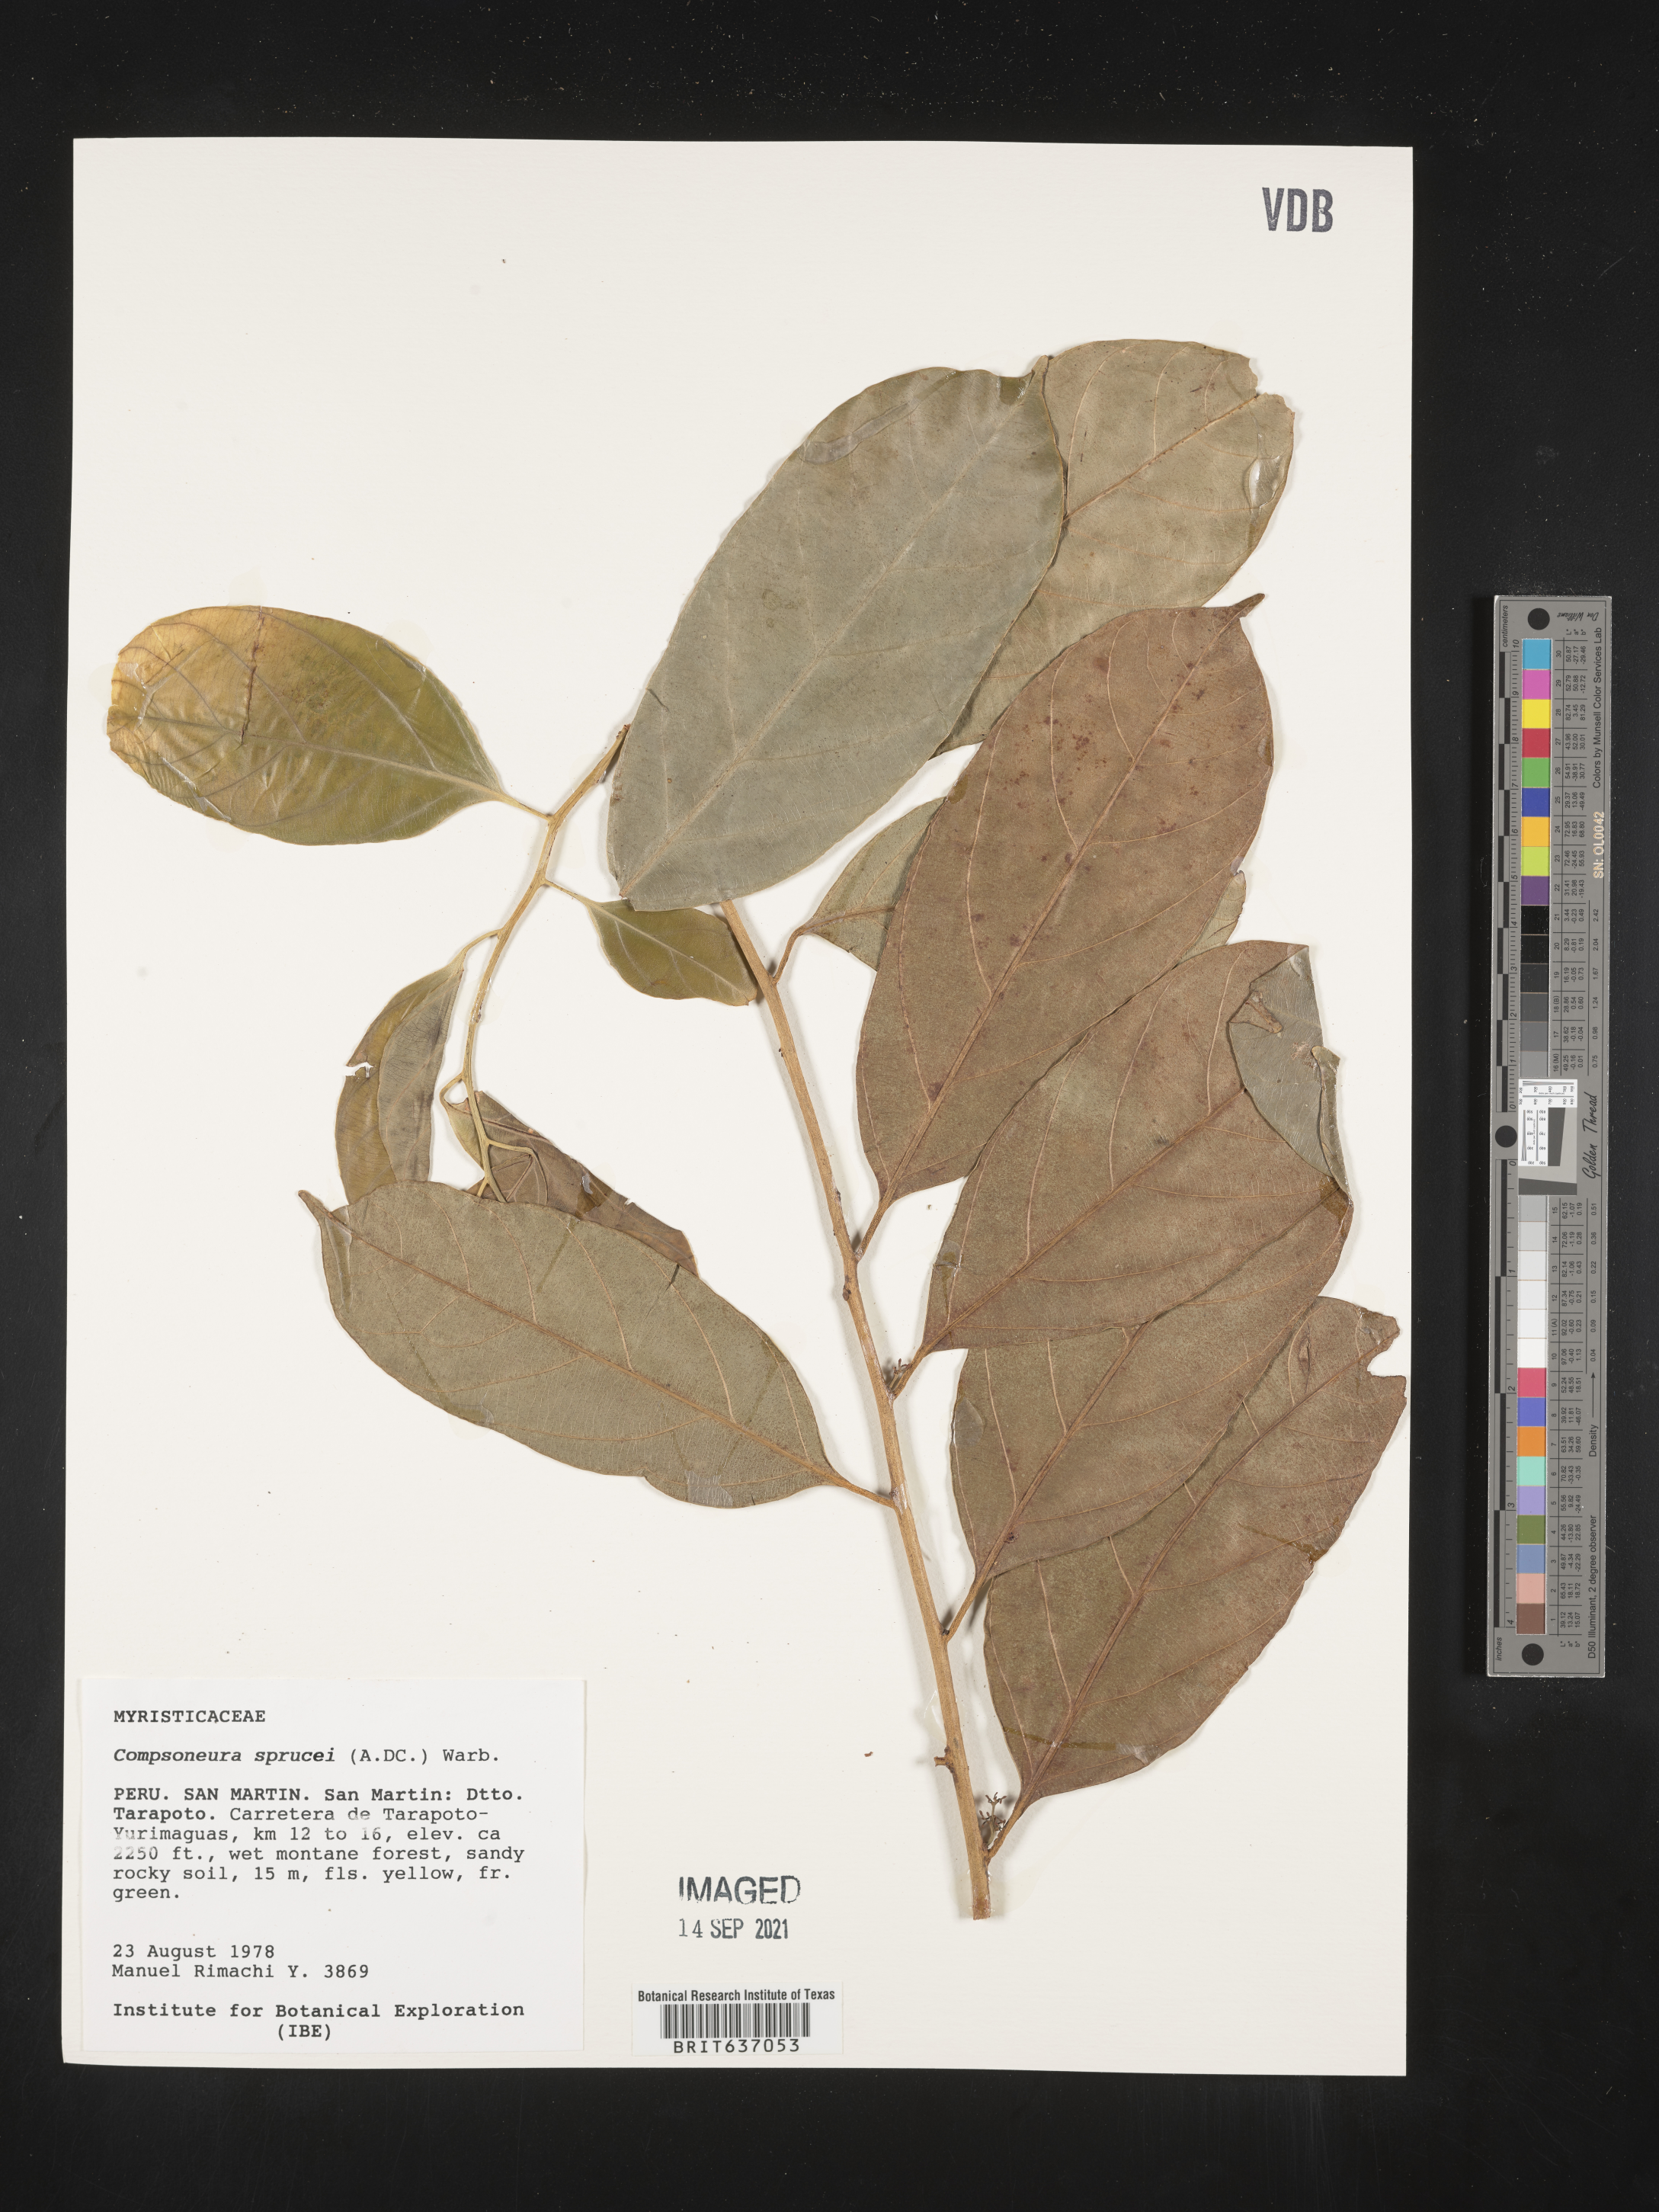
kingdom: Plantae
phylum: Tracheophyta
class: Magnoliopsida
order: Magnoliales
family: Myristicaceae
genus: Compsoneura
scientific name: Compsoneura
